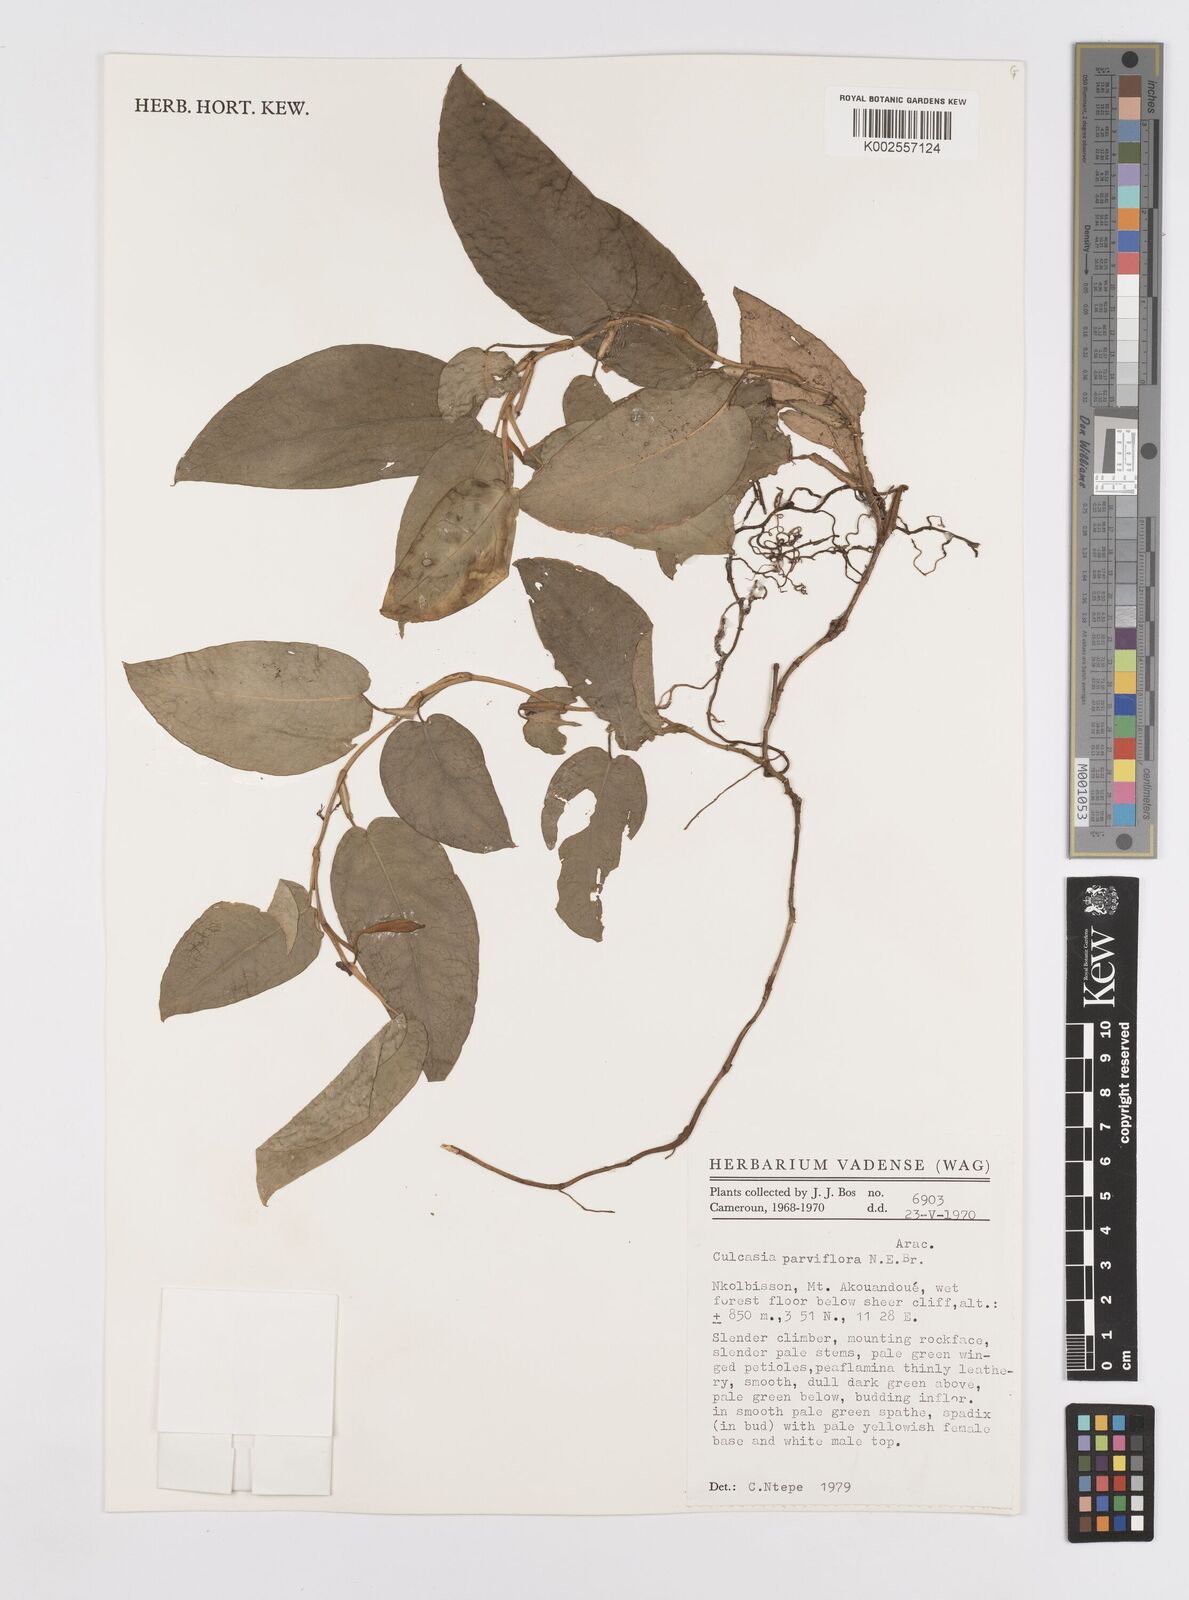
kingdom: Plantae
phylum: Tracheophyta
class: Liliopsida
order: Alismatales
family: Araceae
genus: Culcasia
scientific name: Culcasia parviflora
